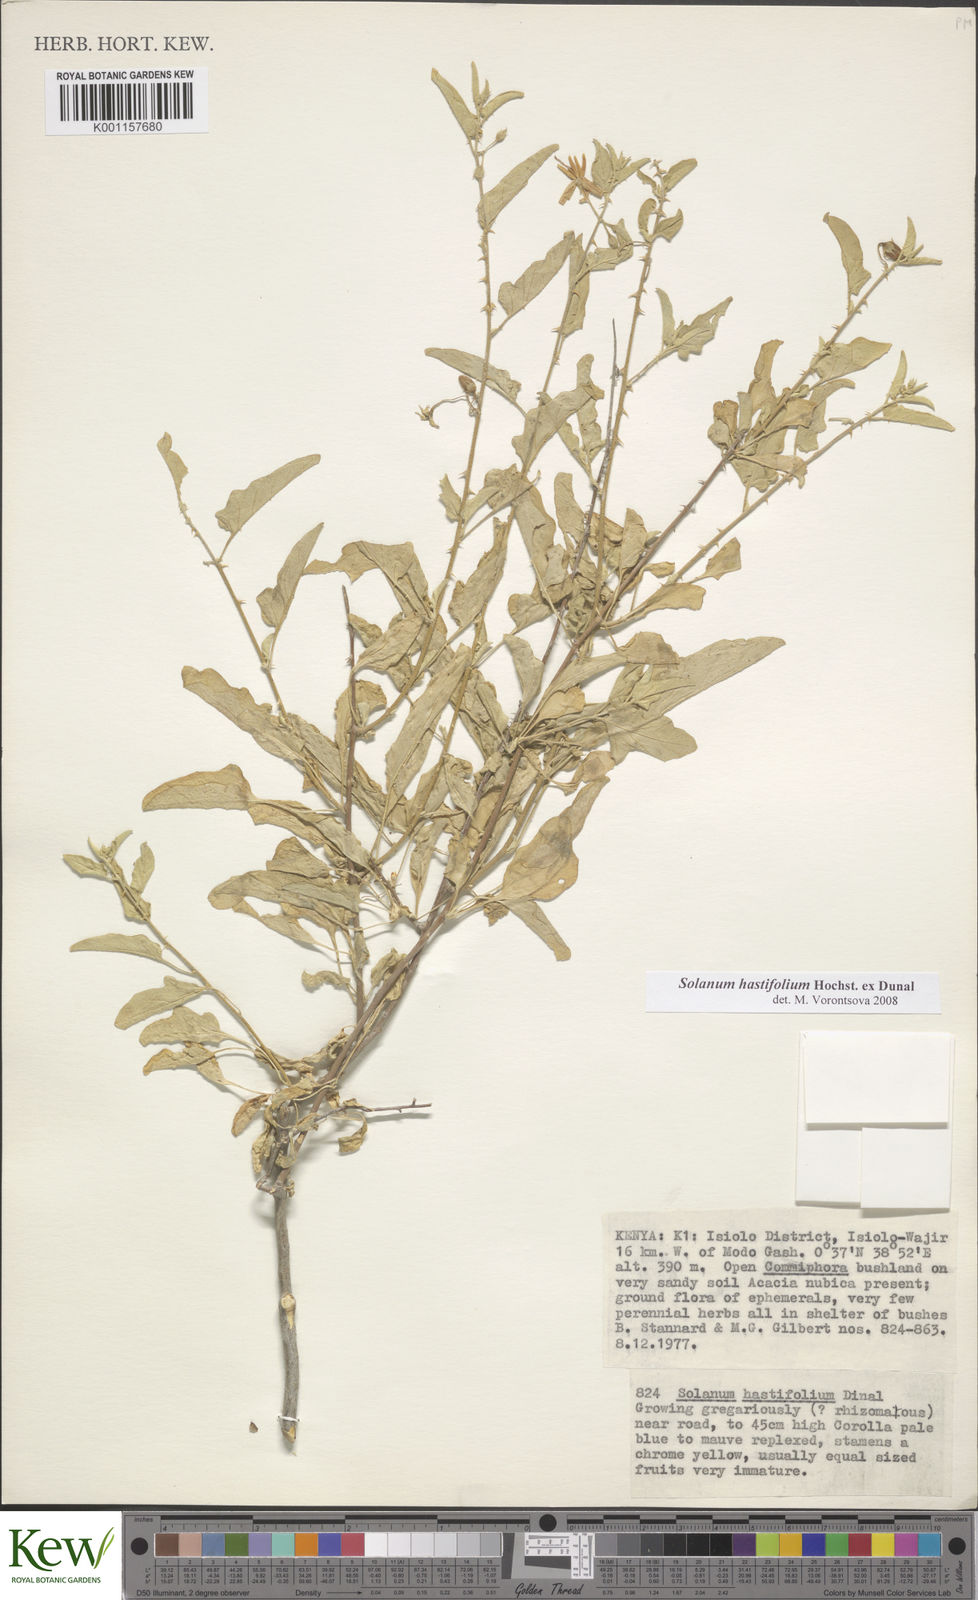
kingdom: Plantae
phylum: Tracheophyta
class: Magnoliopsida
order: Solanales
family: Solanaceae
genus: Solanum
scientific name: Solanum hastifolium
